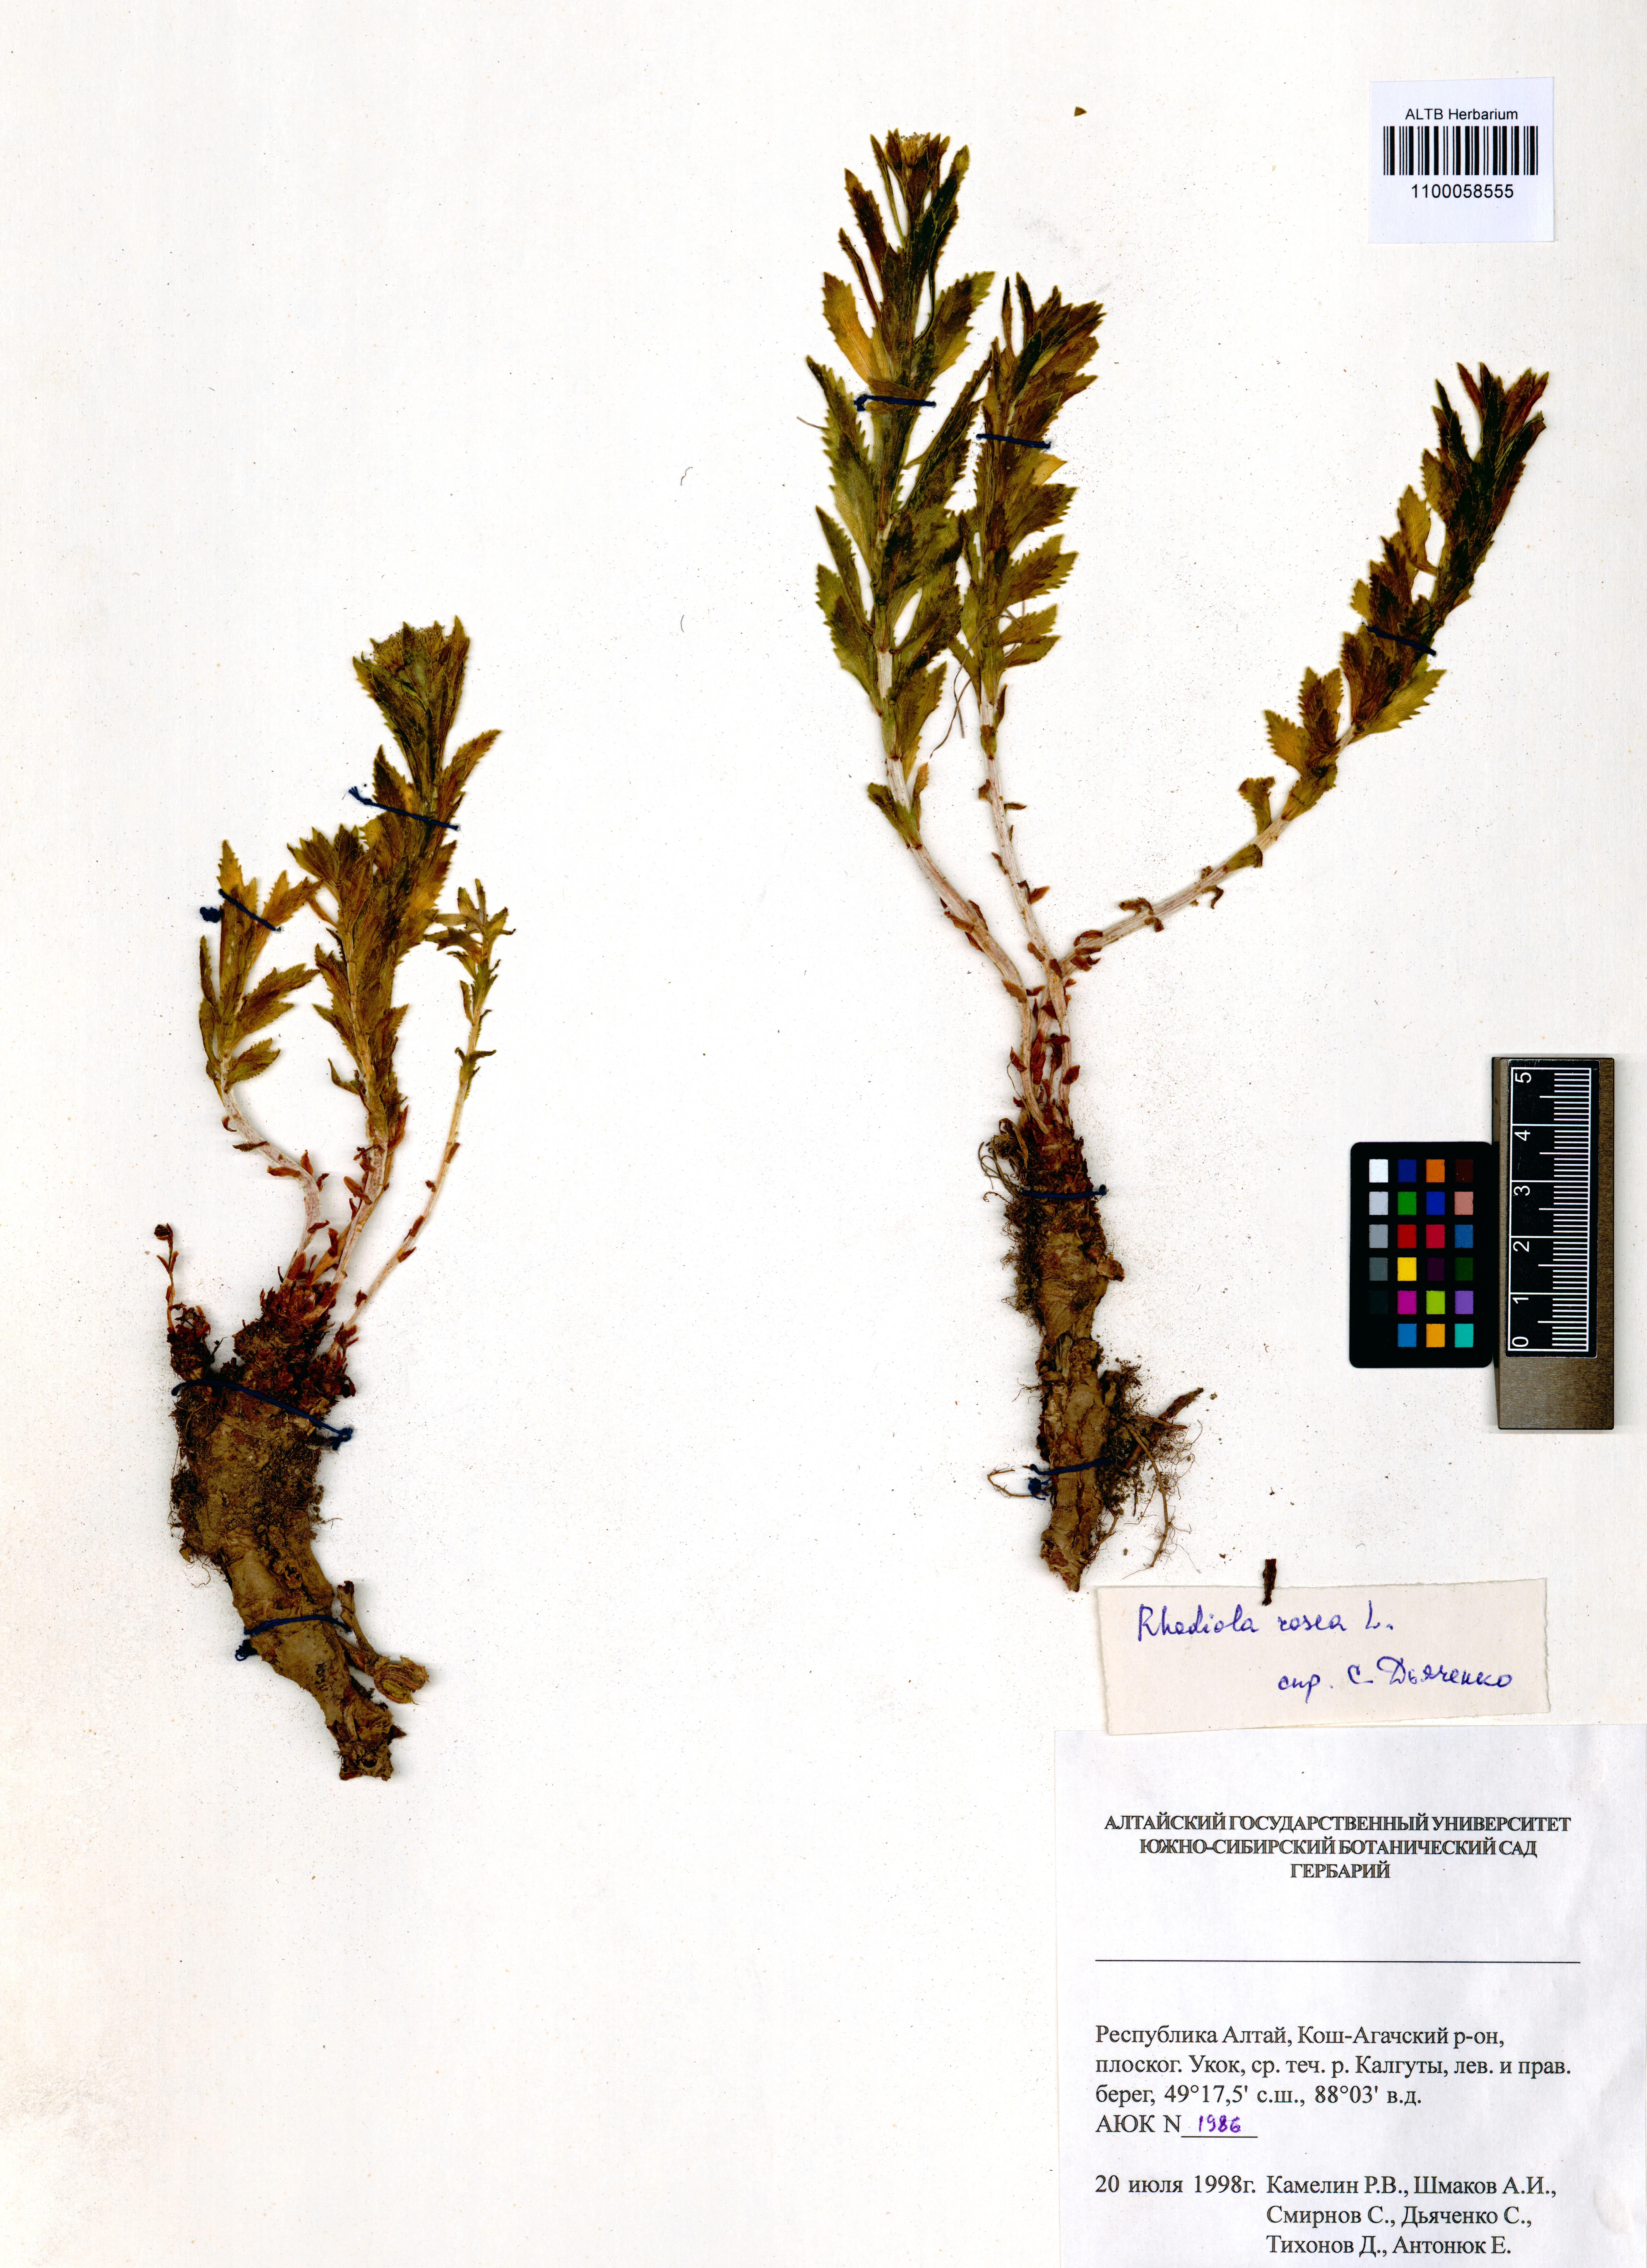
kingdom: Plantae
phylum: Tracheophyta
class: Magnoliopsida
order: Saxifragales
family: Crassulaceae
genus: Rhodiola
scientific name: Rhodiola rosea
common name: Roseroot
